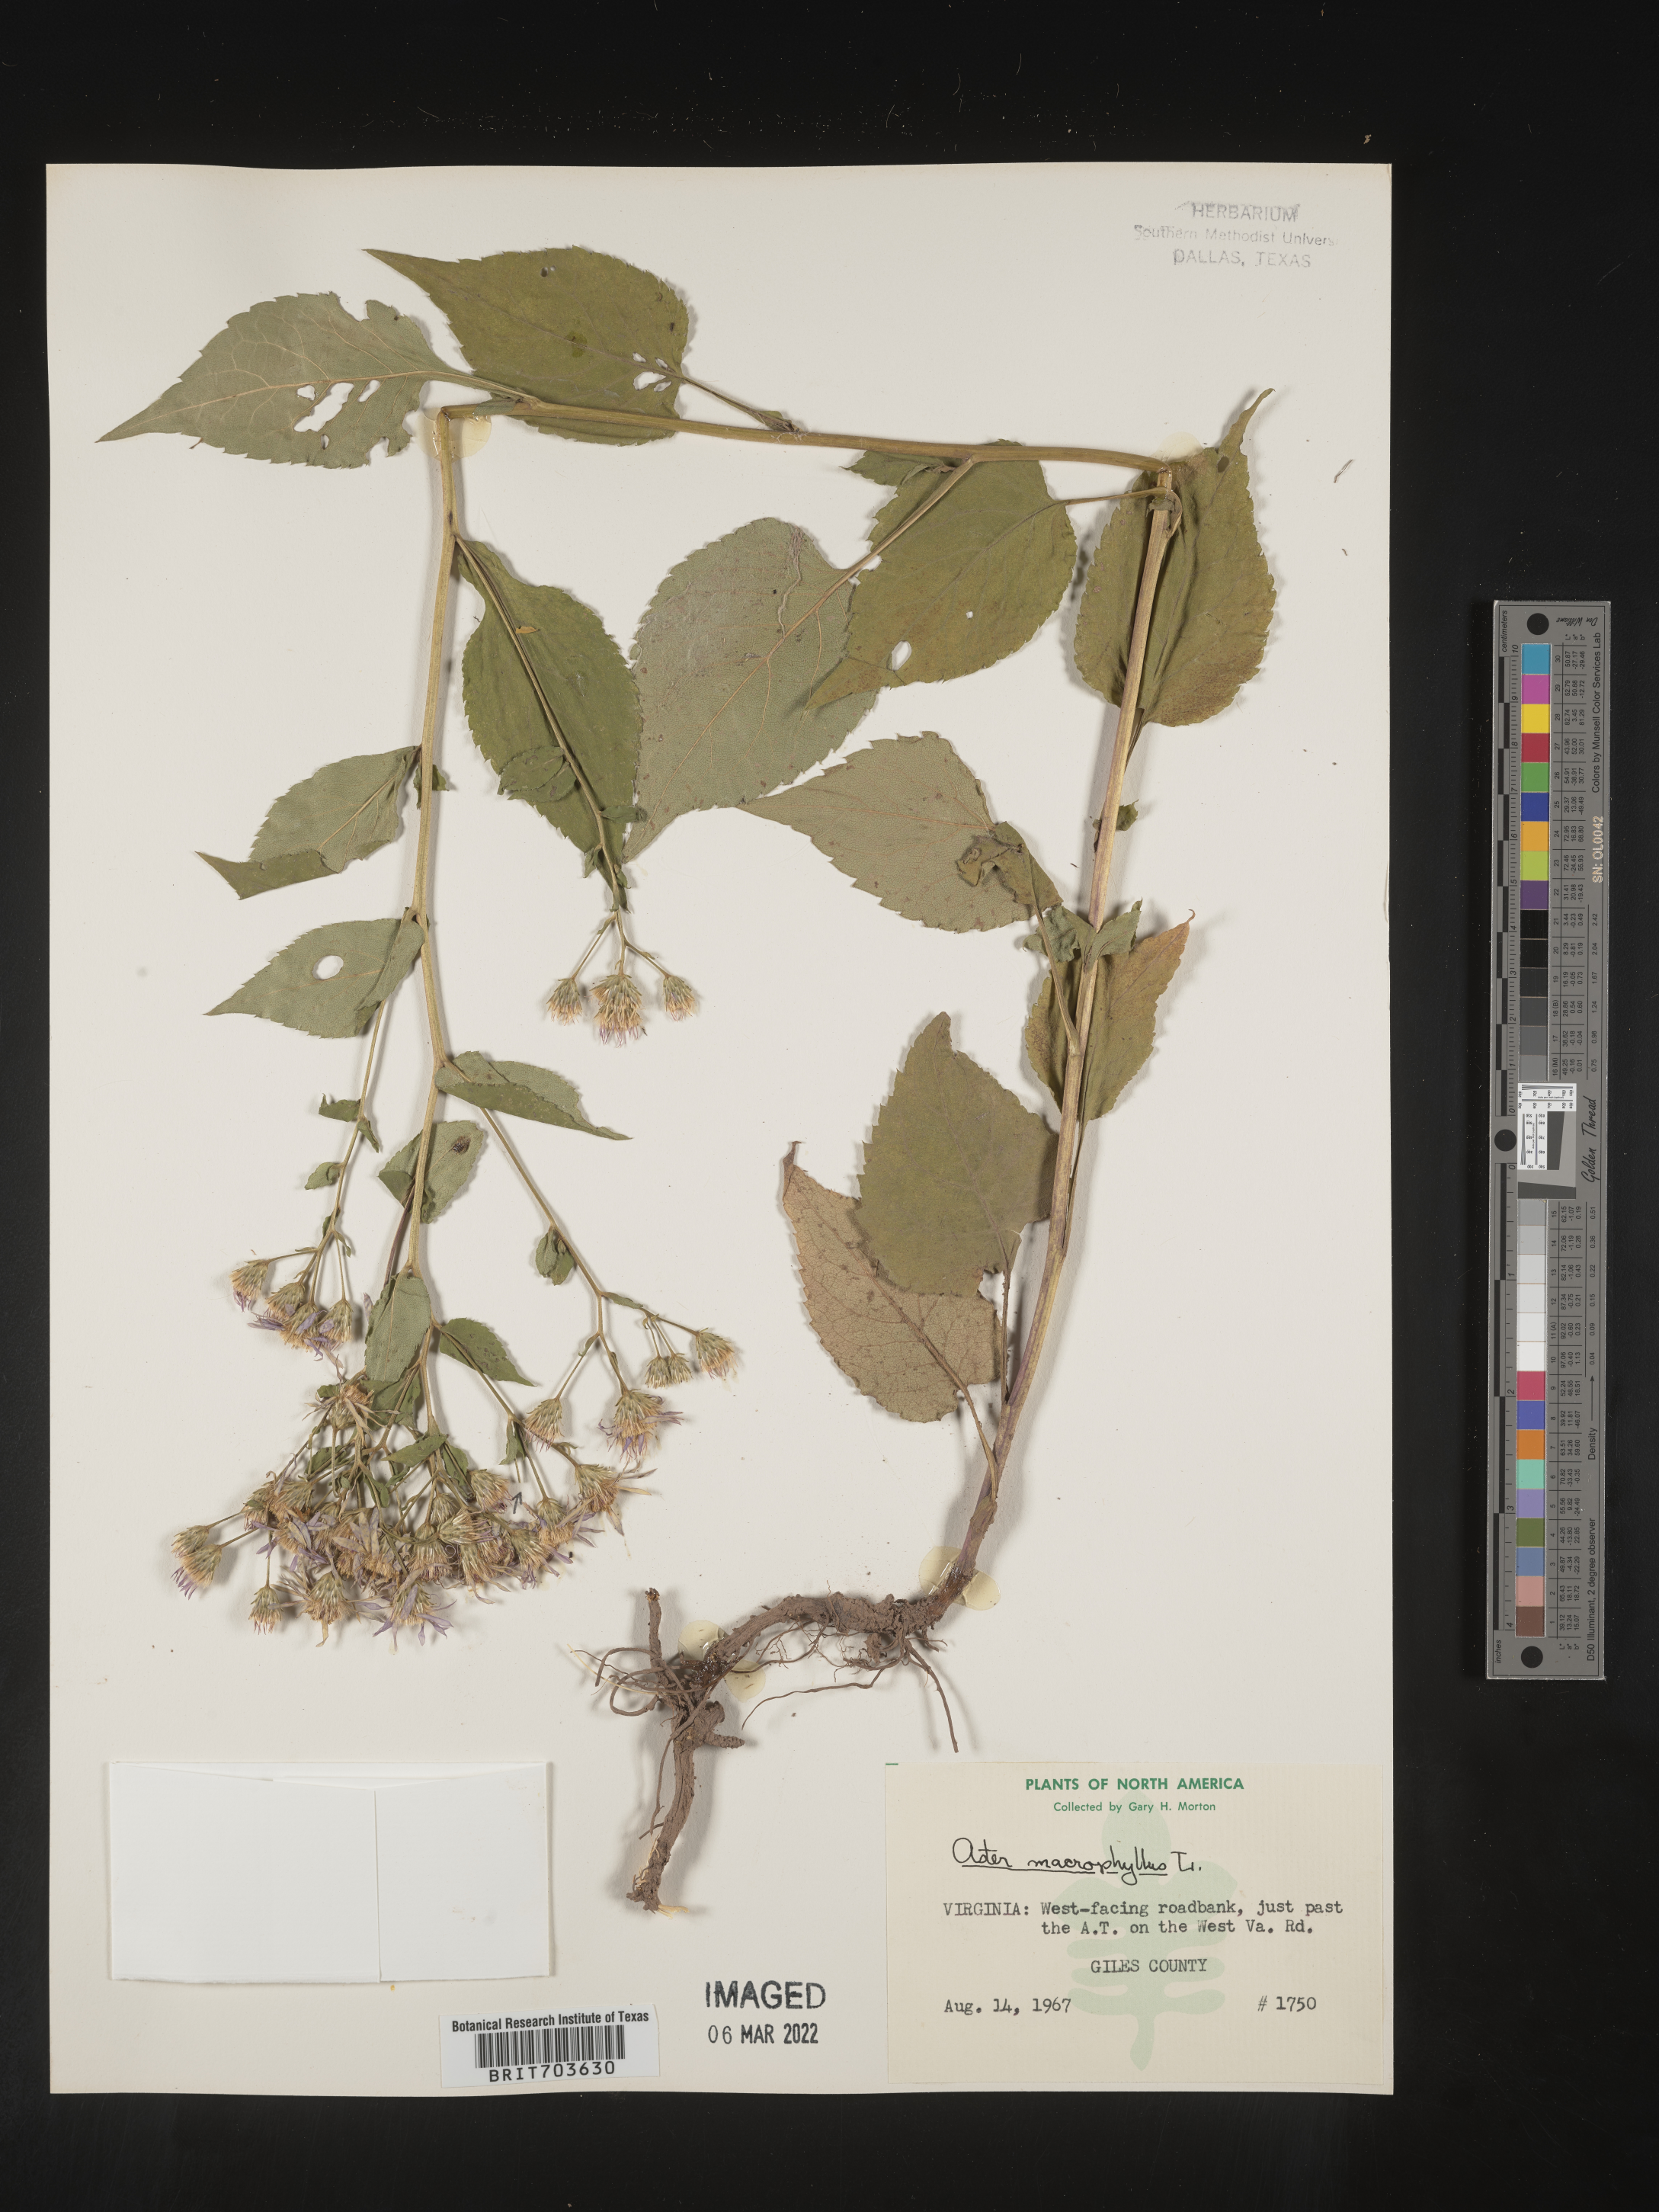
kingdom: Plantae
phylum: Tracheophyta
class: Magnoliopsida
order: Asterales
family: Asteraceae
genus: Eurybia
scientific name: Eurybia macrophylla
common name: Big-leaved aster
